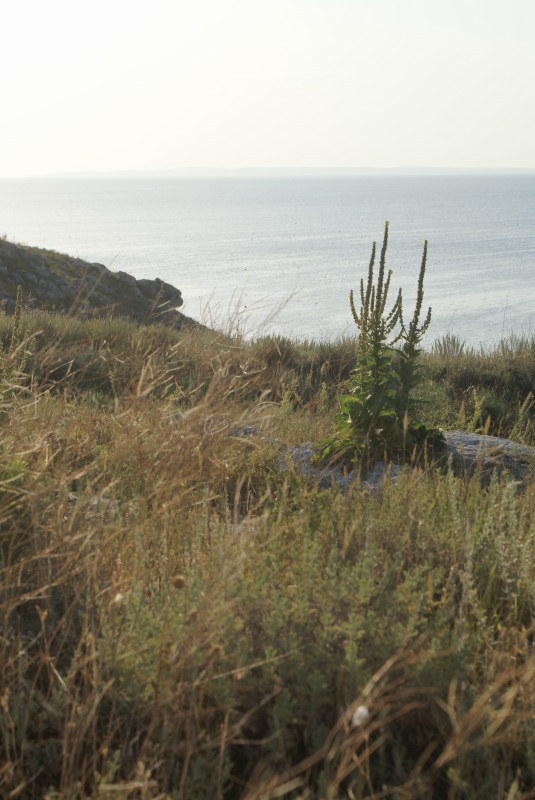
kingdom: Plantae
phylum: Tracheophyta
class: Magnoliopsida
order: Lamiales
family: Scrophulariaceae
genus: Verbascum
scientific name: Verbascum
